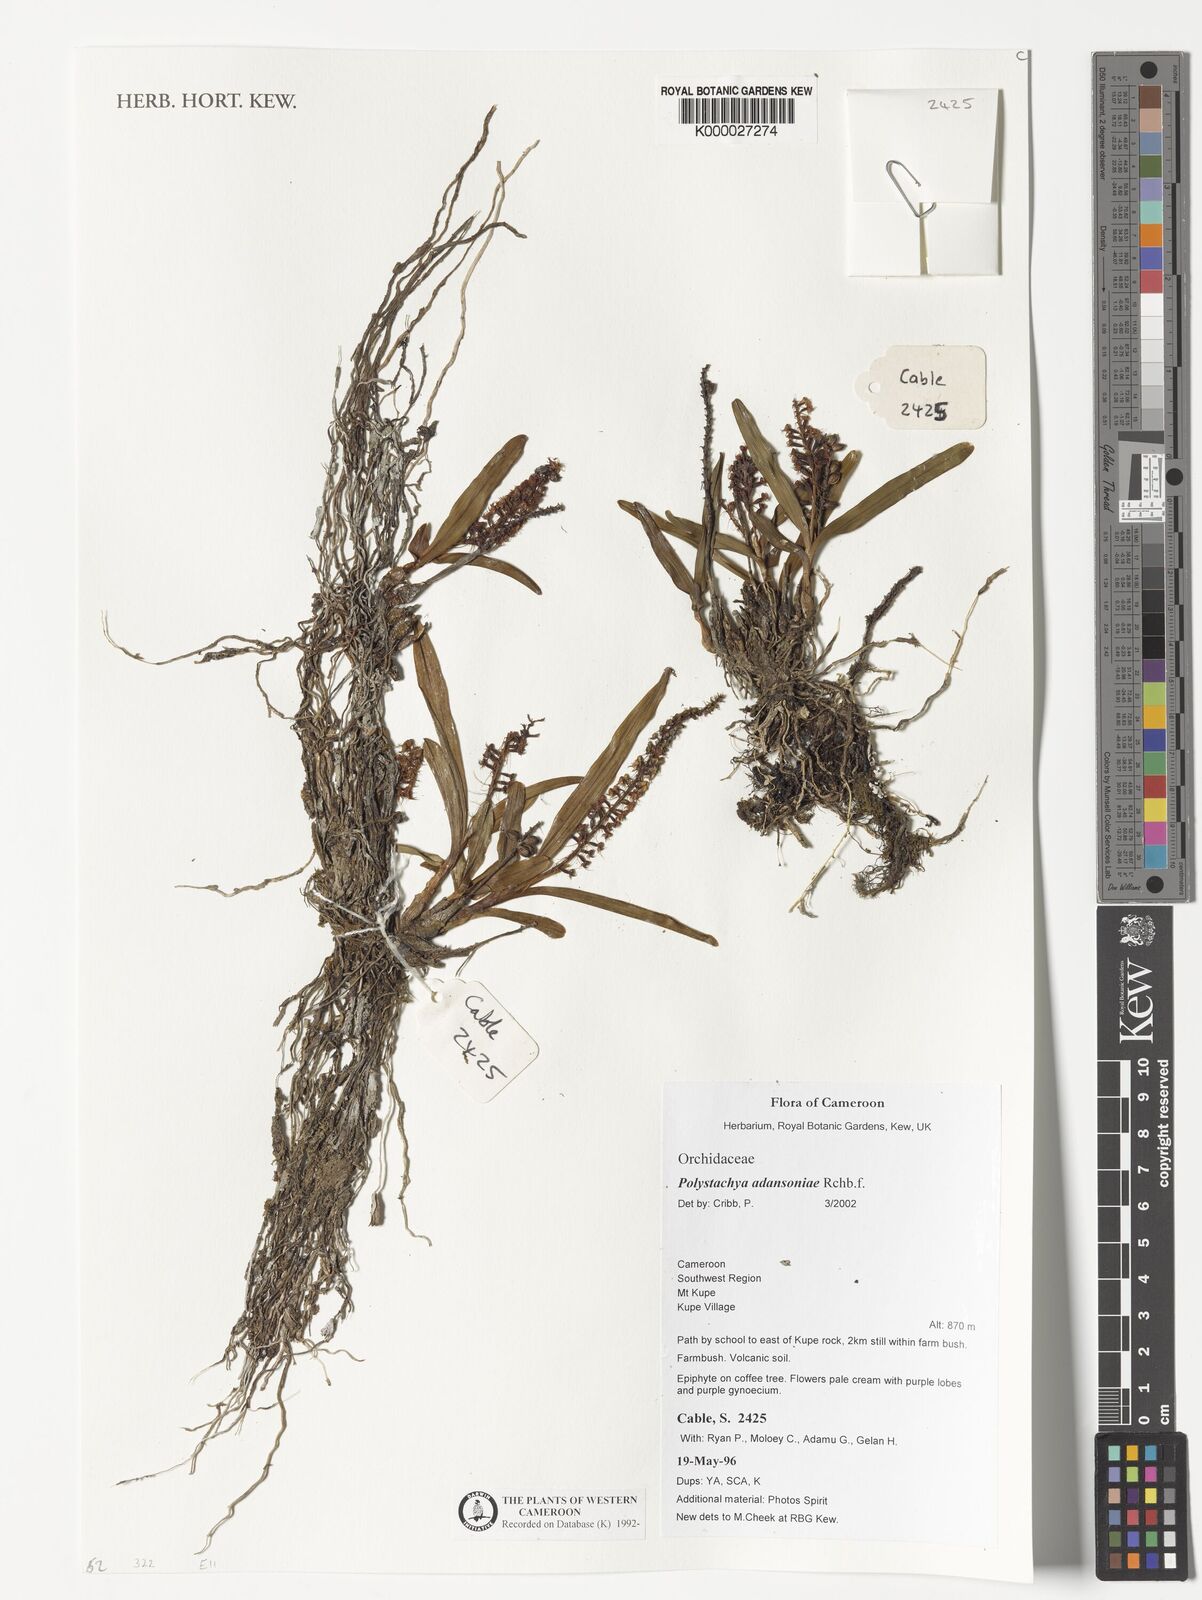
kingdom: Plantae
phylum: Tracheophyta
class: Liliopsida
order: Asparagales
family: Orchidaceae
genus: Polystachya
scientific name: Polystachya adansoniae
